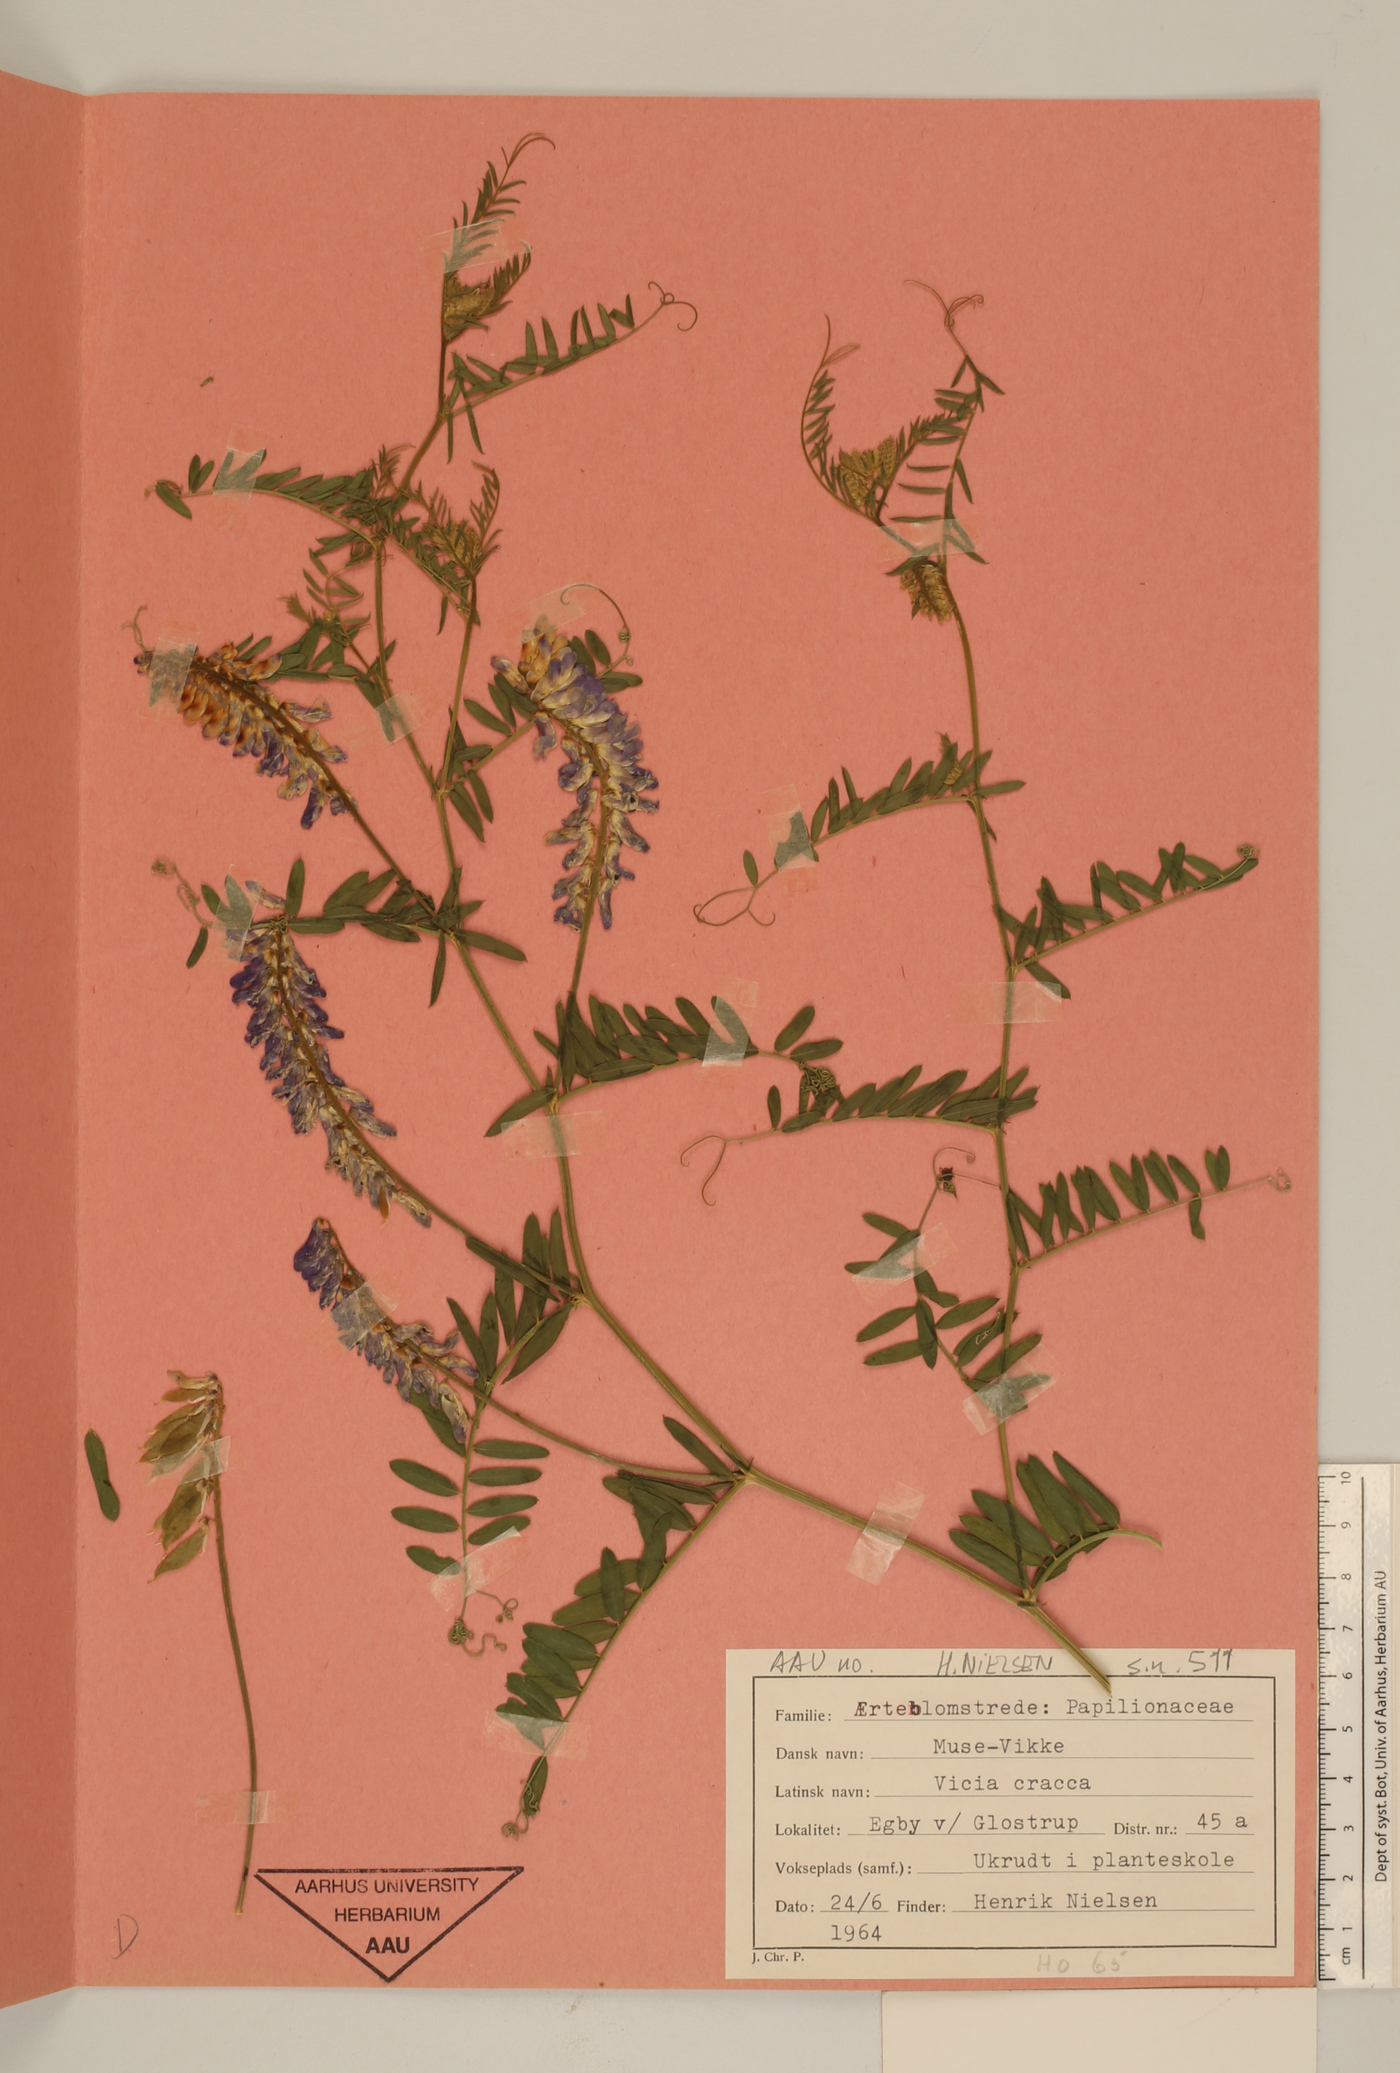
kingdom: Plantae
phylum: Tracheophyta
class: Magnoliopsida
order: Fabales
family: Fabaceae
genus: Vicia
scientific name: Vicia cracca
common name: Bird vetch
